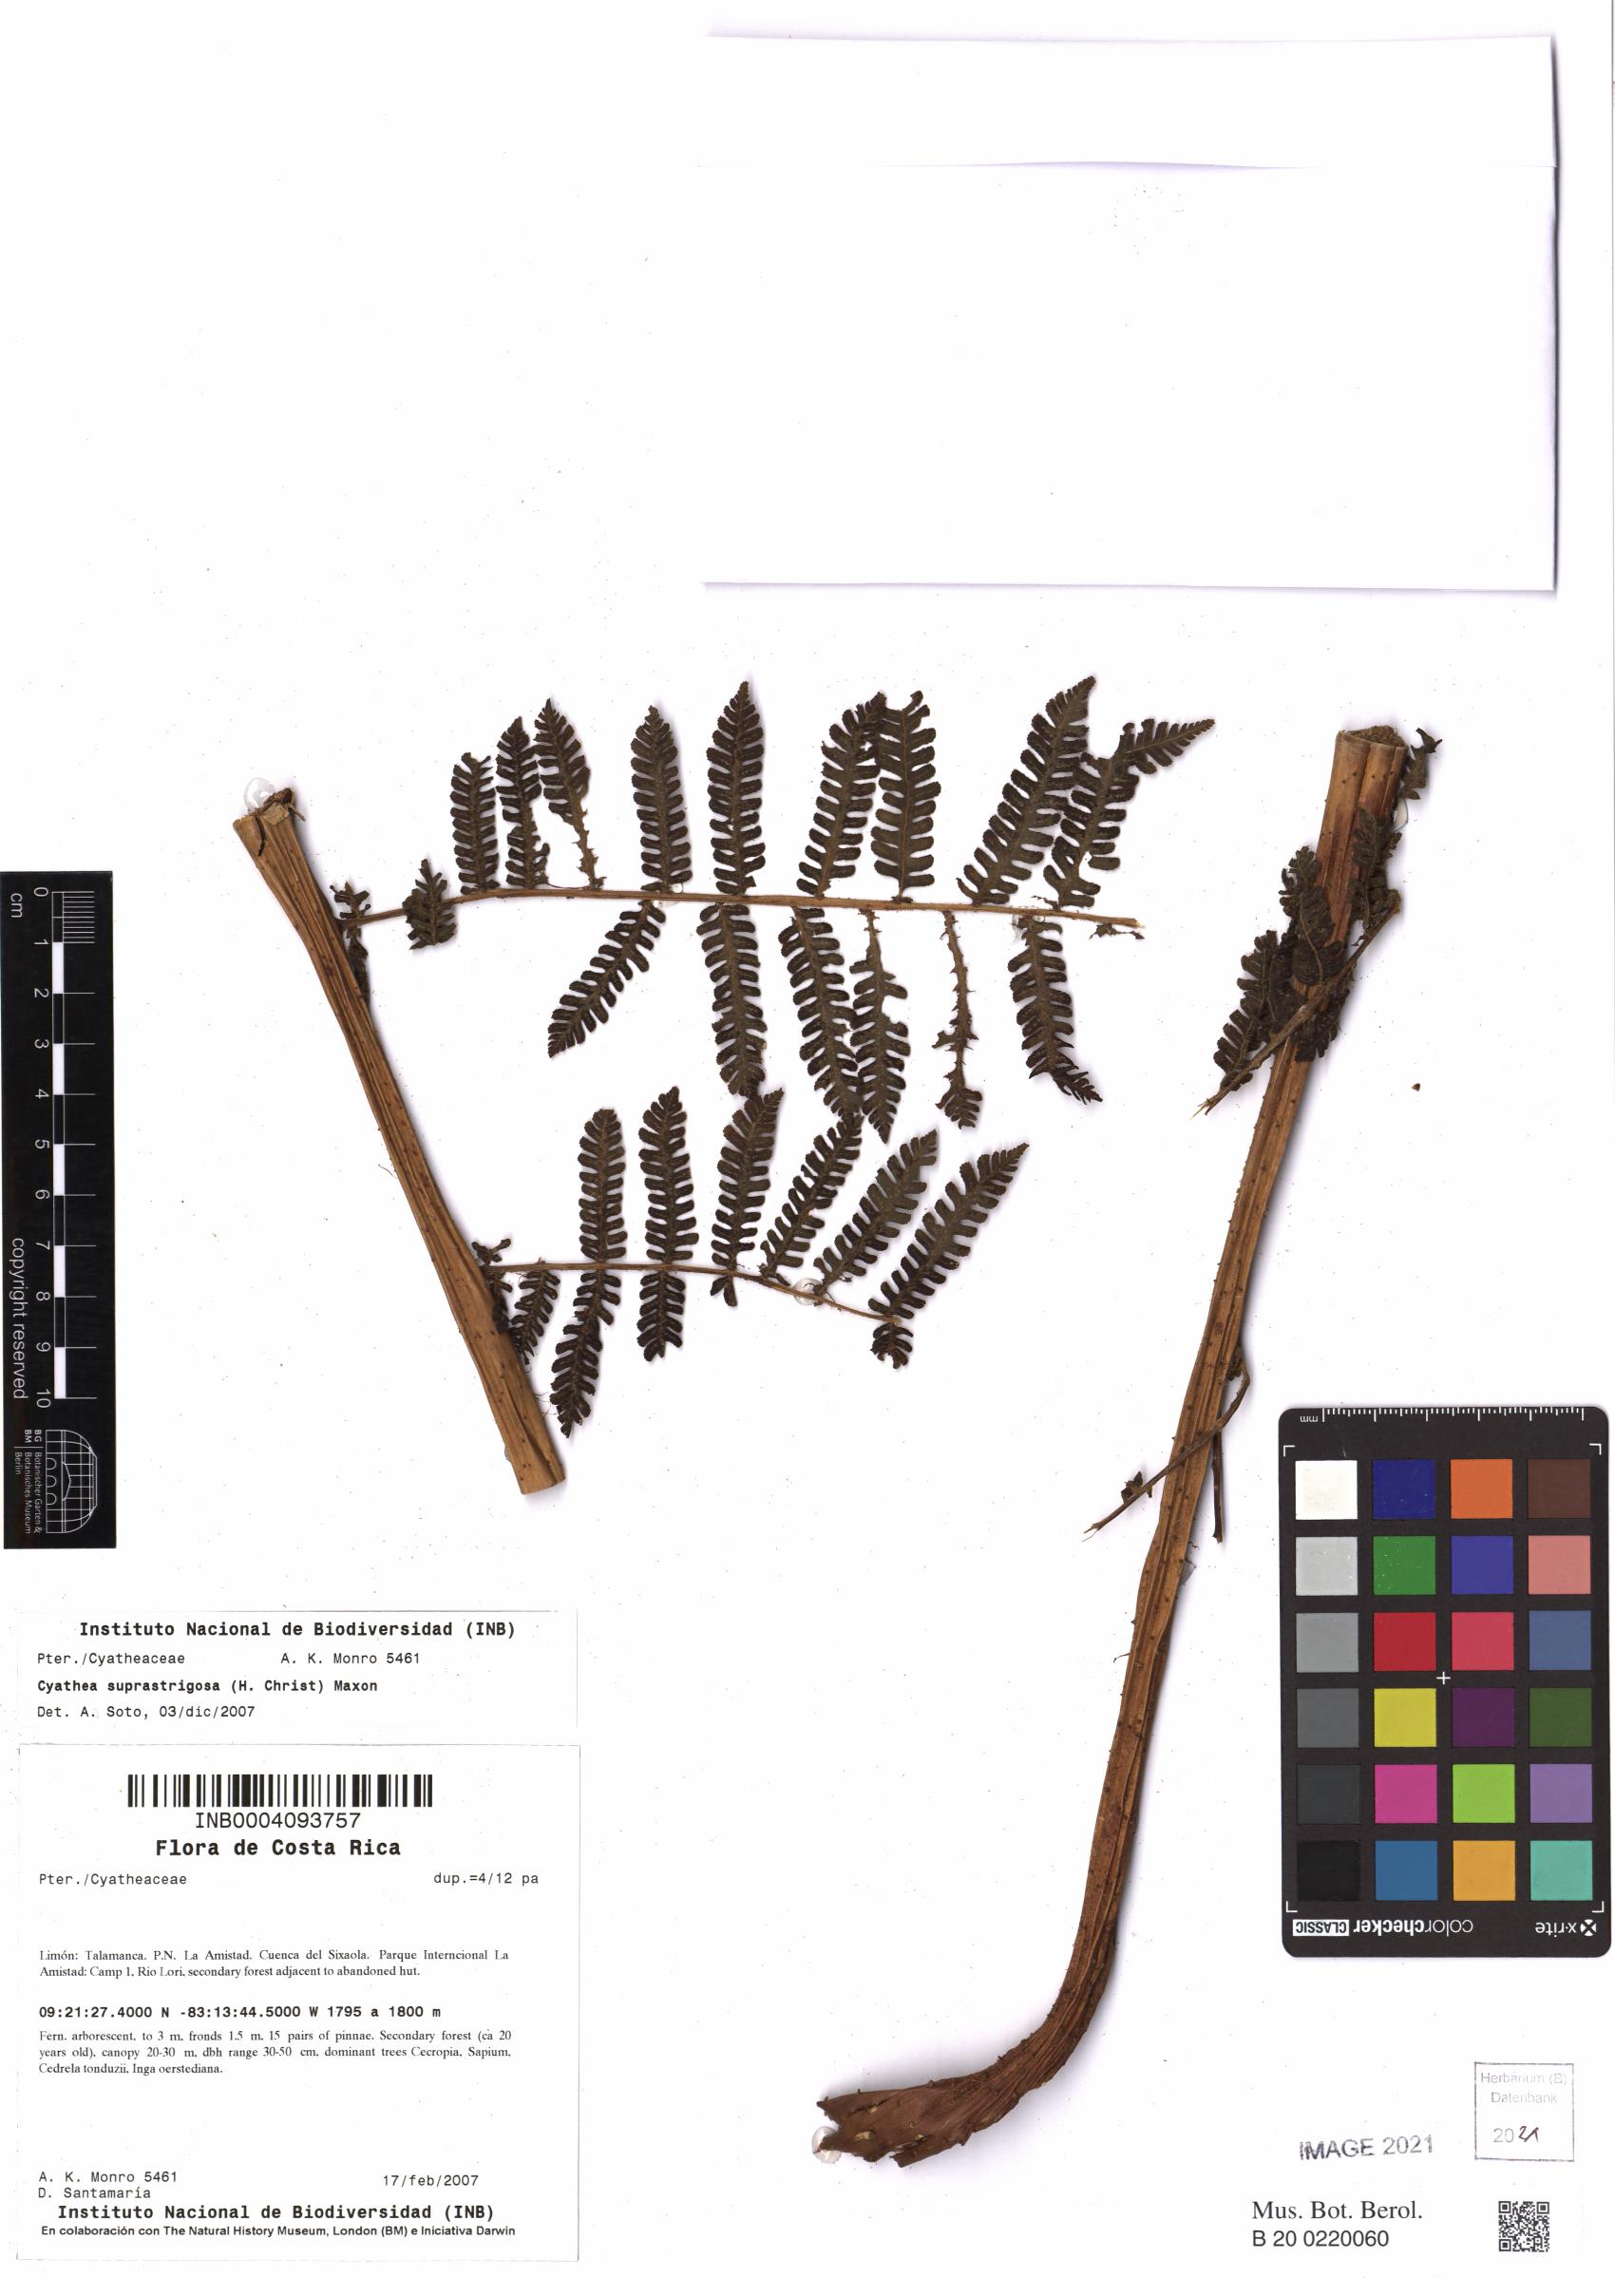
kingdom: Plantae
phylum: Tracheophyta
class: Polypodiopsida
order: Cyatheales
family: Cyatheaceae
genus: Cyathea
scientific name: Cyathea suprastrigosa
